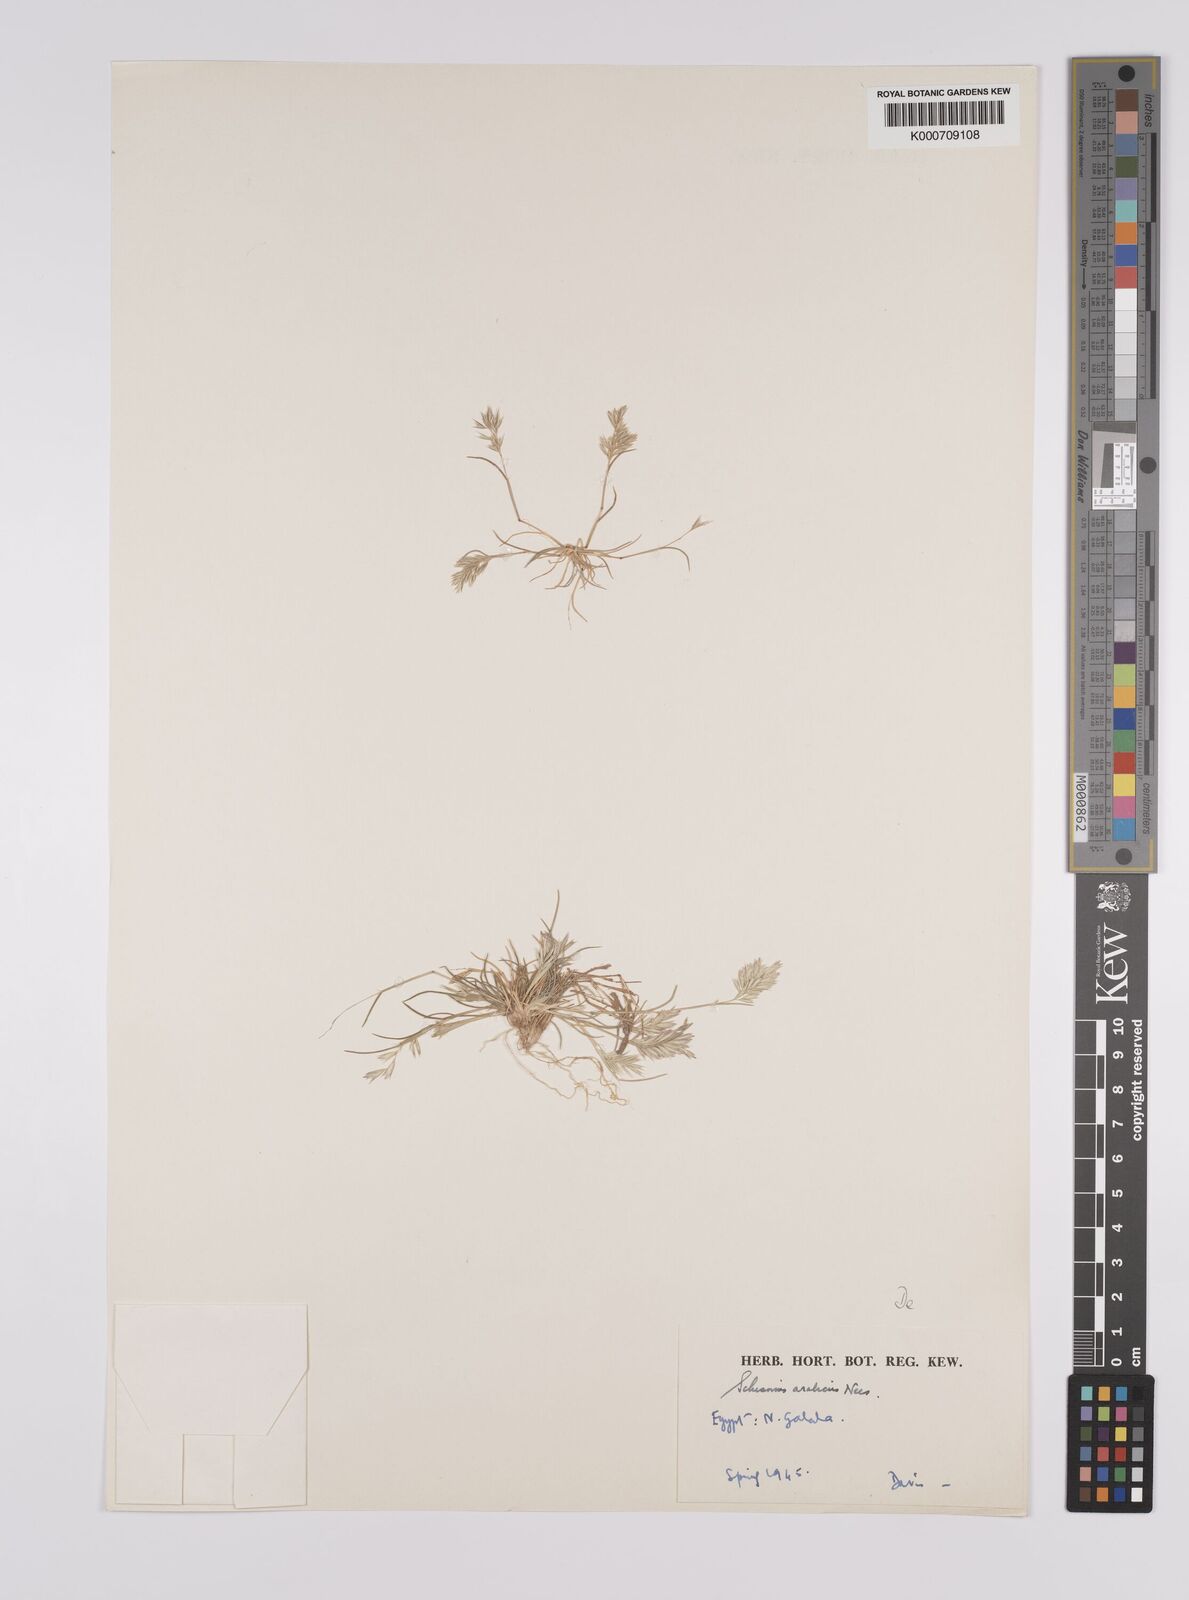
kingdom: Plantae
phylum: Tracheophyta
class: Liliopsida
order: Poales
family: Poaceae
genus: Schismus
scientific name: Schismus arabicus
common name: Arabian schismus
